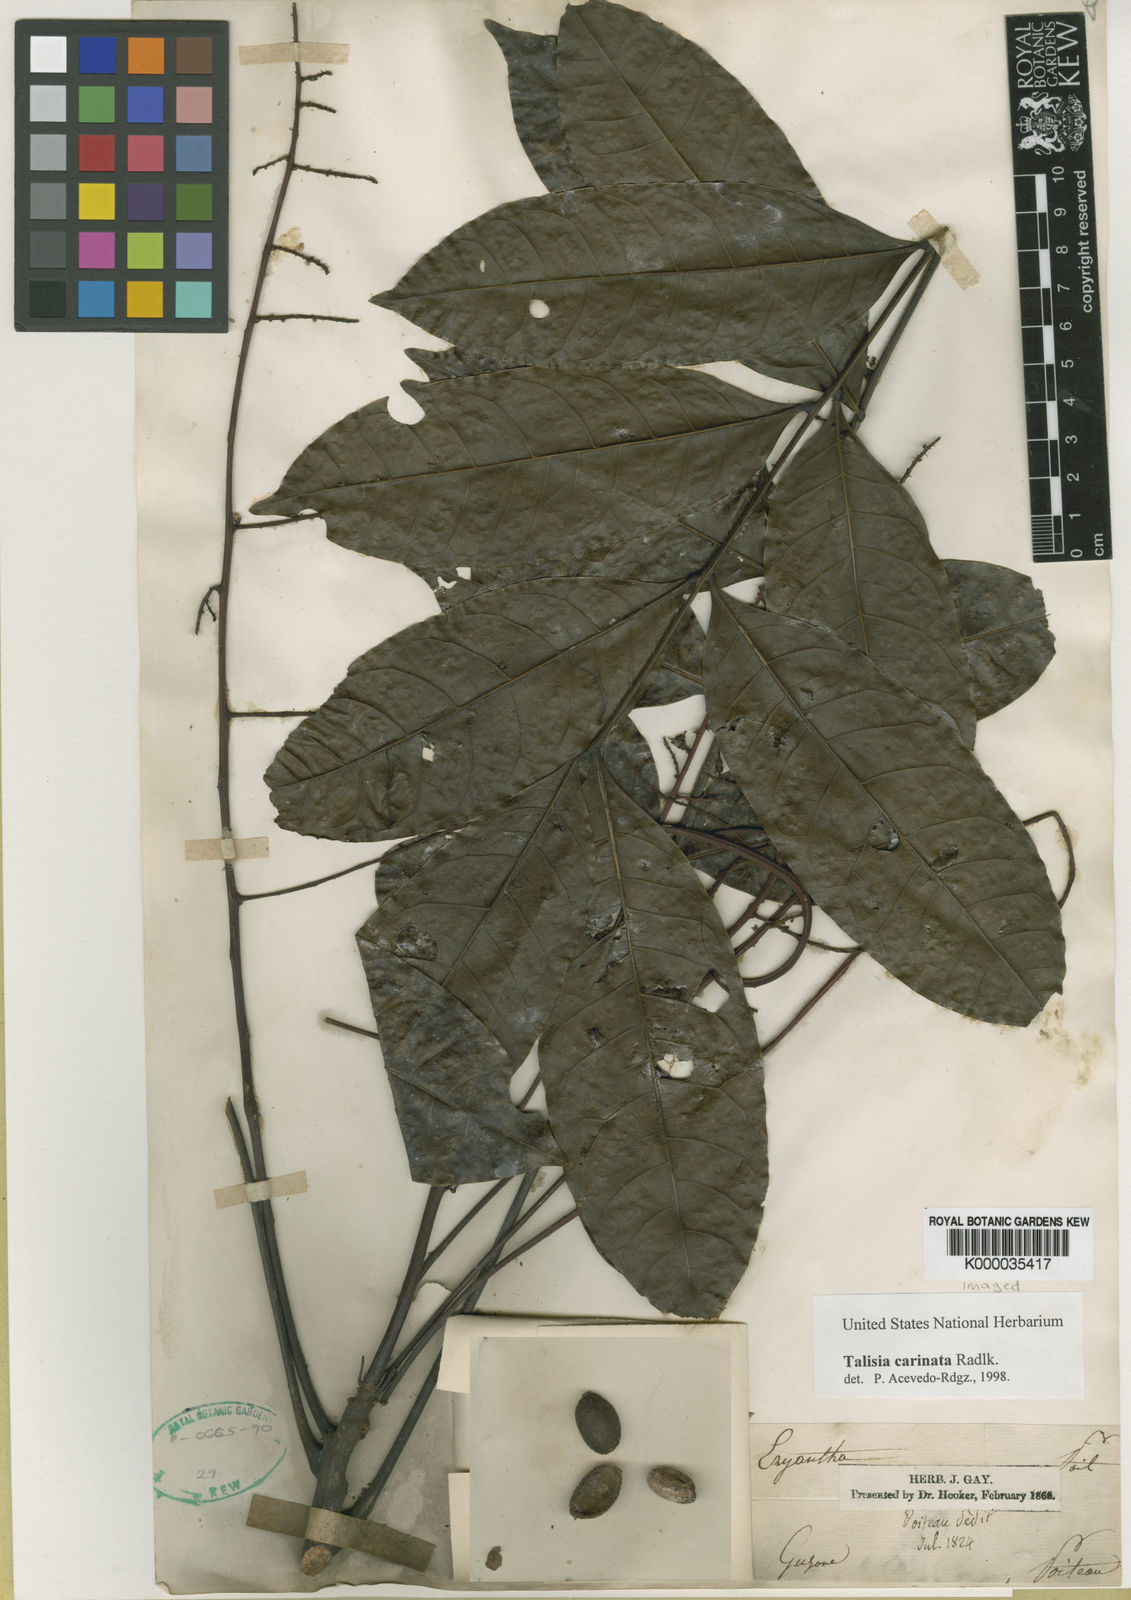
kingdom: Plantae
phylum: Tracheophyta
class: Magnoliopsida
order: Sapindales
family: Sapindaceae
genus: Talisia
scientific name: Talisia carinata
